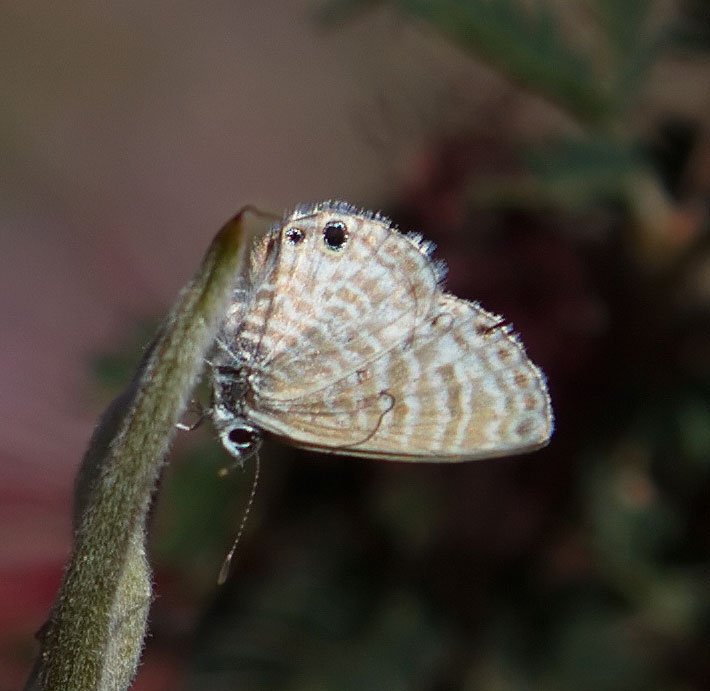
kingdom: Animalia
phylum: Arthropoda
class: Insecta
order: Lepidoptera
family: Lycaenidae
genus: Leptotes
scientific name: Leptotes marina
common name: Marine Blue
